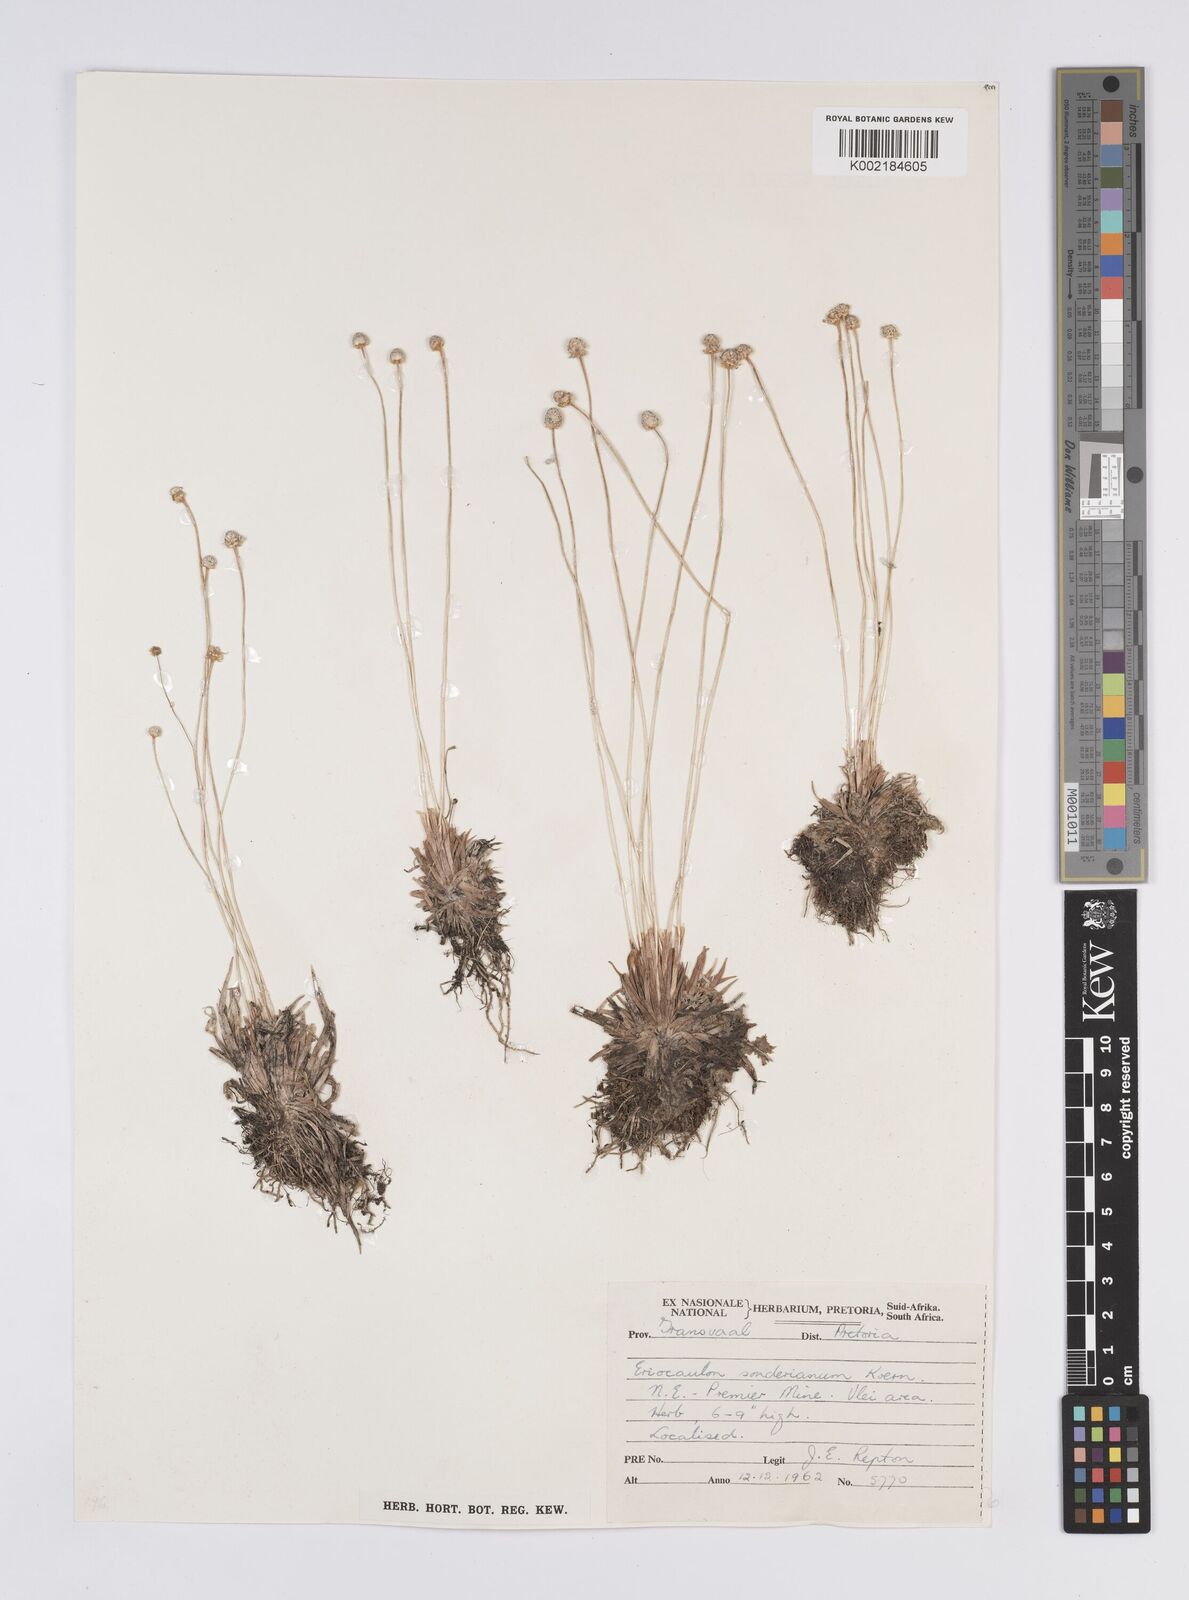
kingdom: Plantae
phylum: Tracheophyta
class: Liliopsida
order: Poales
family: Eriocaulaceae
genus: Eriocaulon
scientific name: Eriocaulon
